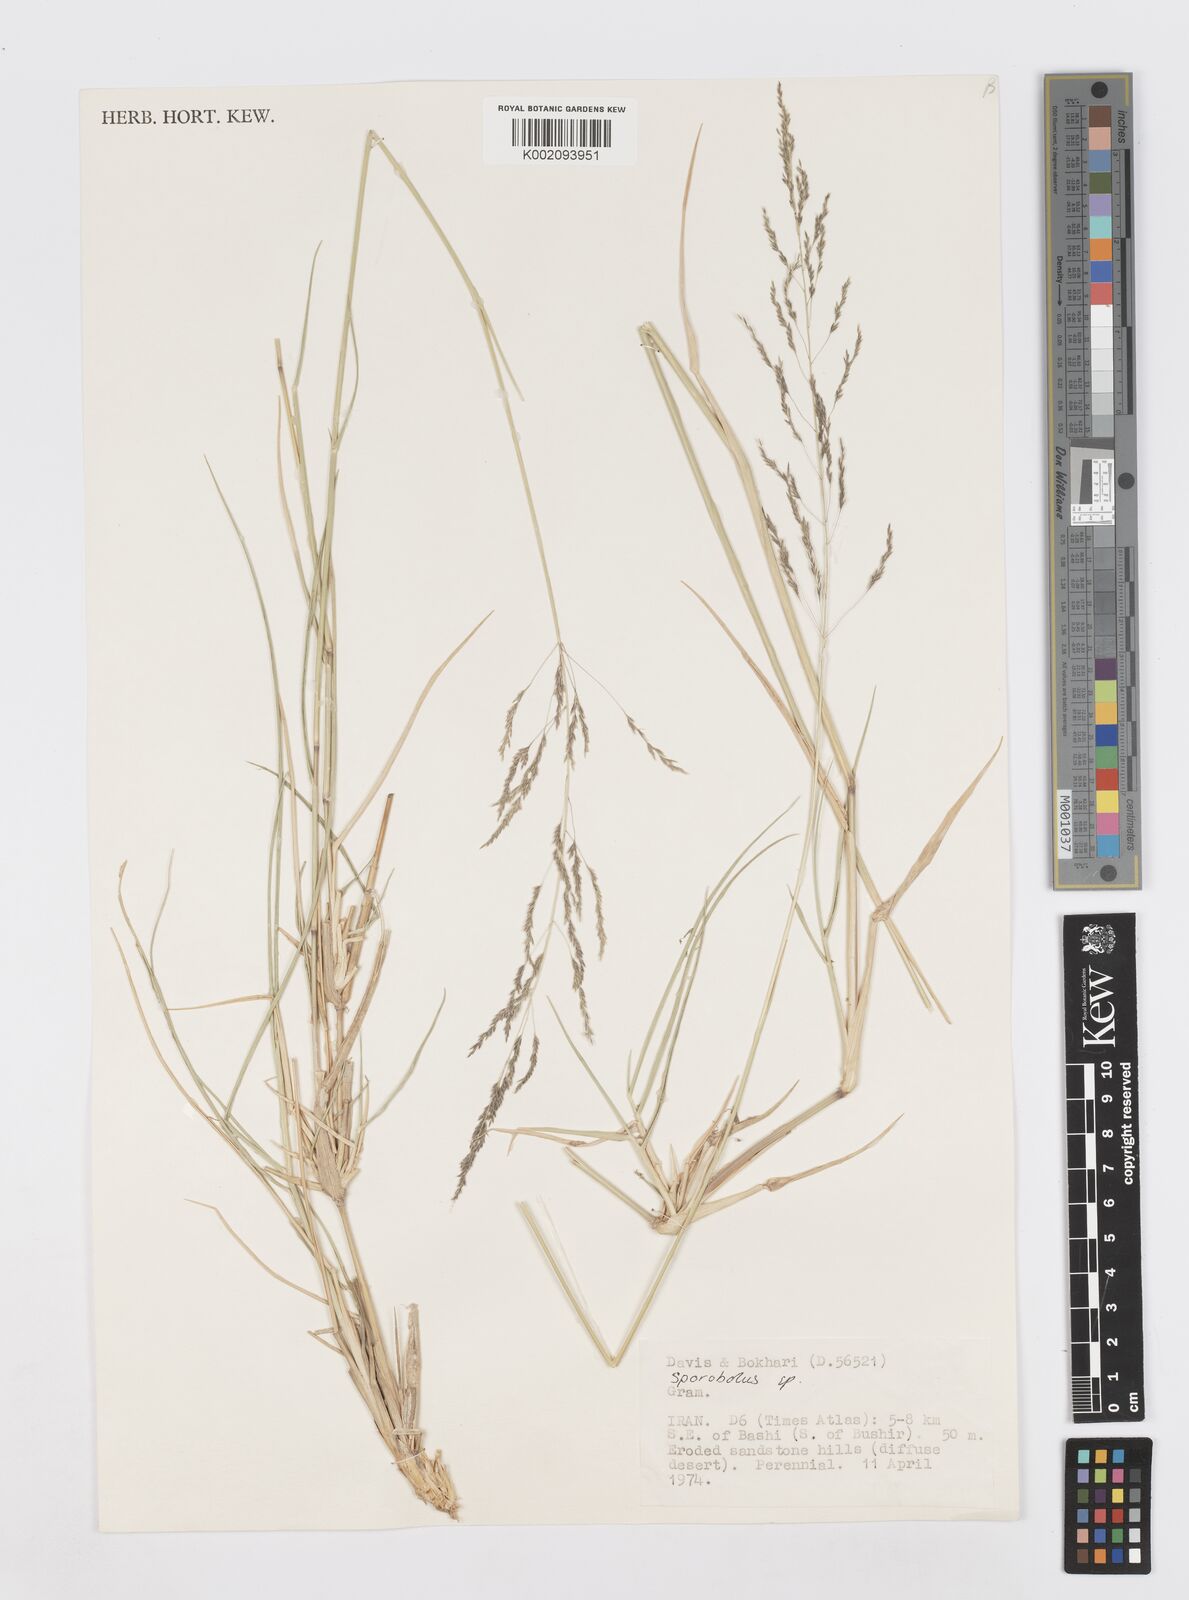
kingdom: Plantae
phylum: Tracheophyta
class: Liliopsida
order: Poales
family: Poaceae
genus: Sporobolus
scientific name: Sporobolus
